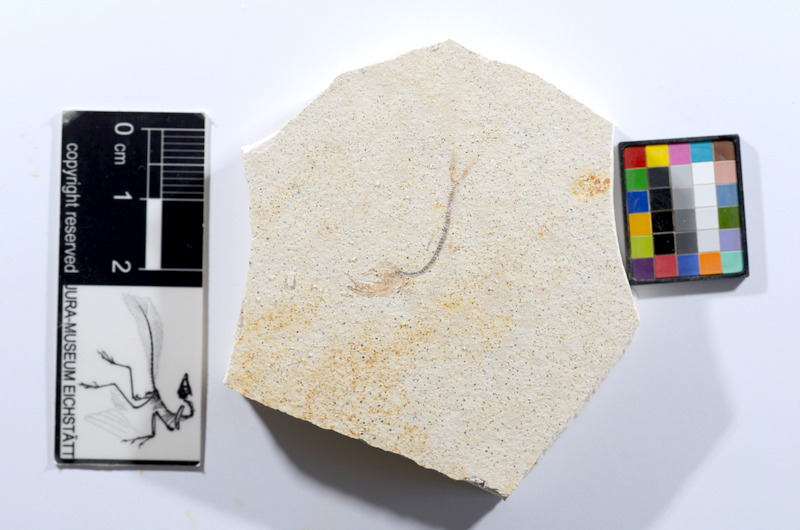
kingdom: Animalia
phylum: Chordata
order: Salmoniformes
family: Orthogonikleithridae
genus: Orthogonikleithrus
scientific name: Orthogonikleithrus hoelli
